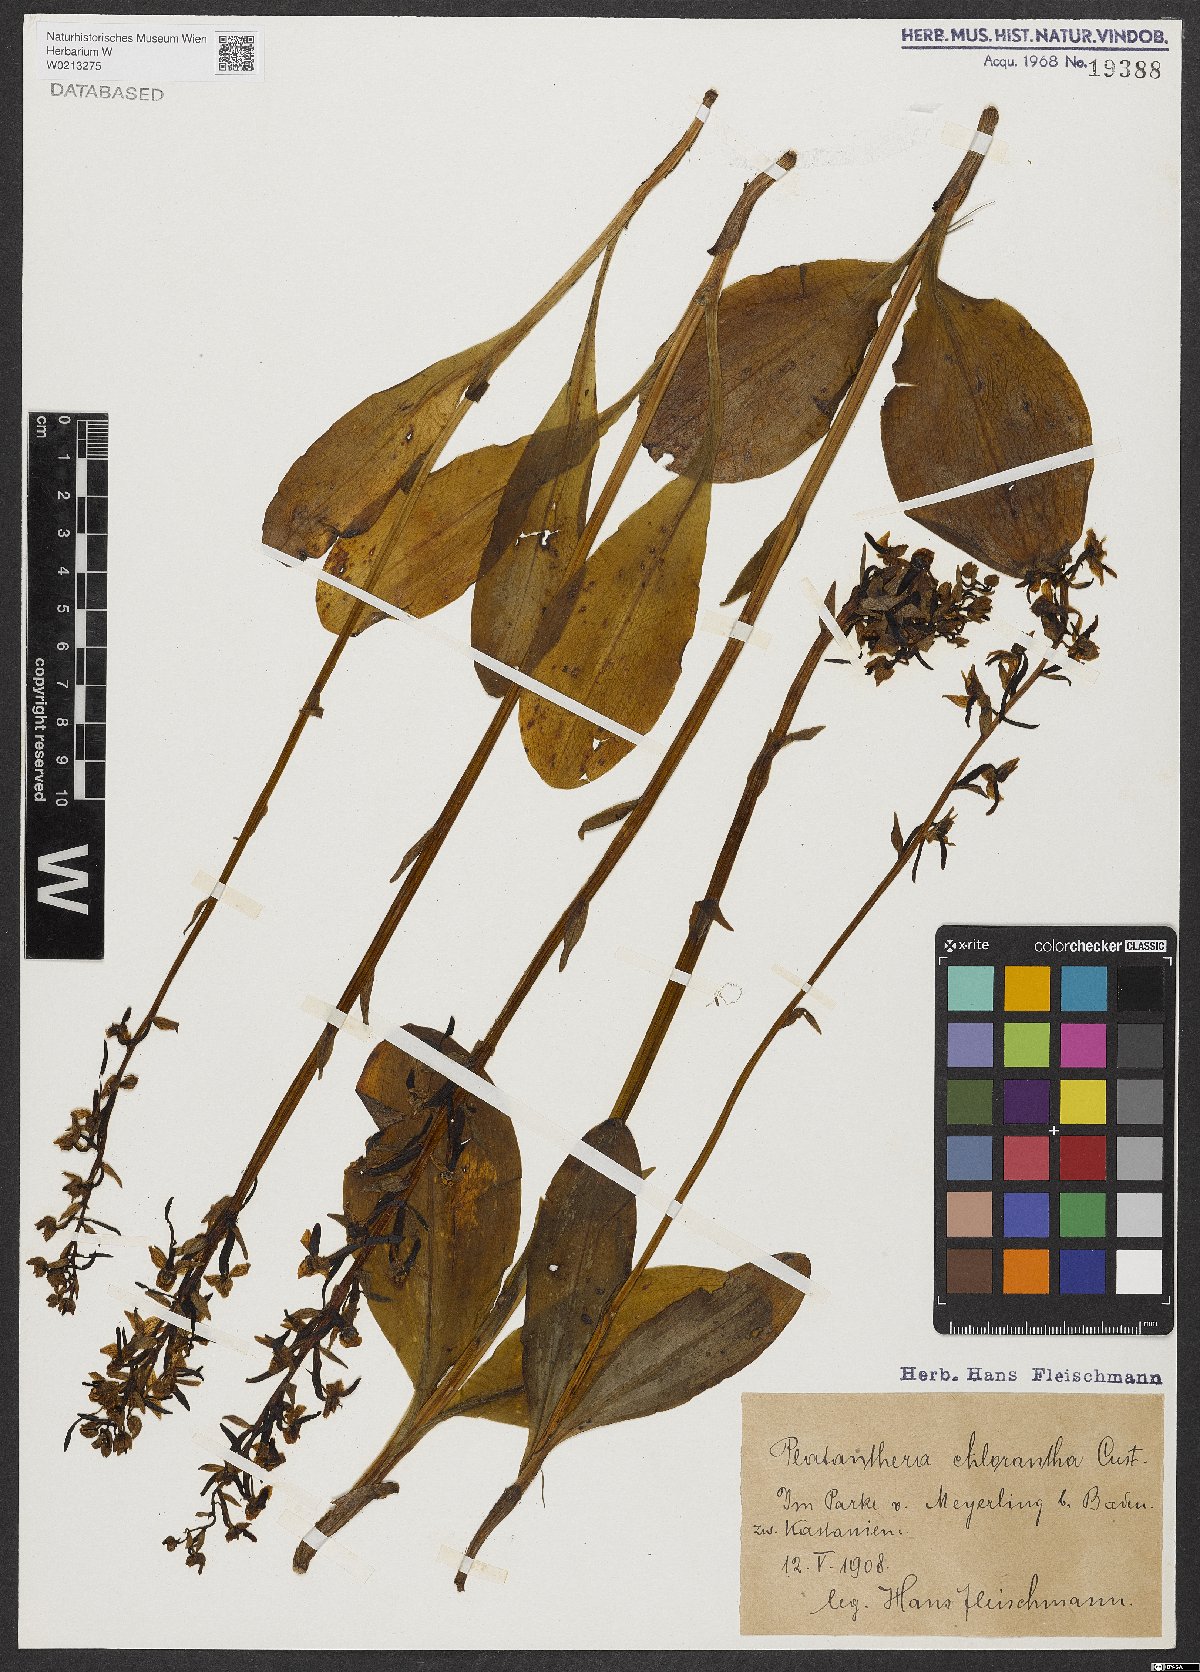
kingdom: Plantae
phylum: Tracheophyta
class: Liliopsida
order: Asparagales
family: Orchidaceae
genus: Platanthera
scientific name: Platanthera chlorantha
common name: Greater butterfly-orchid
